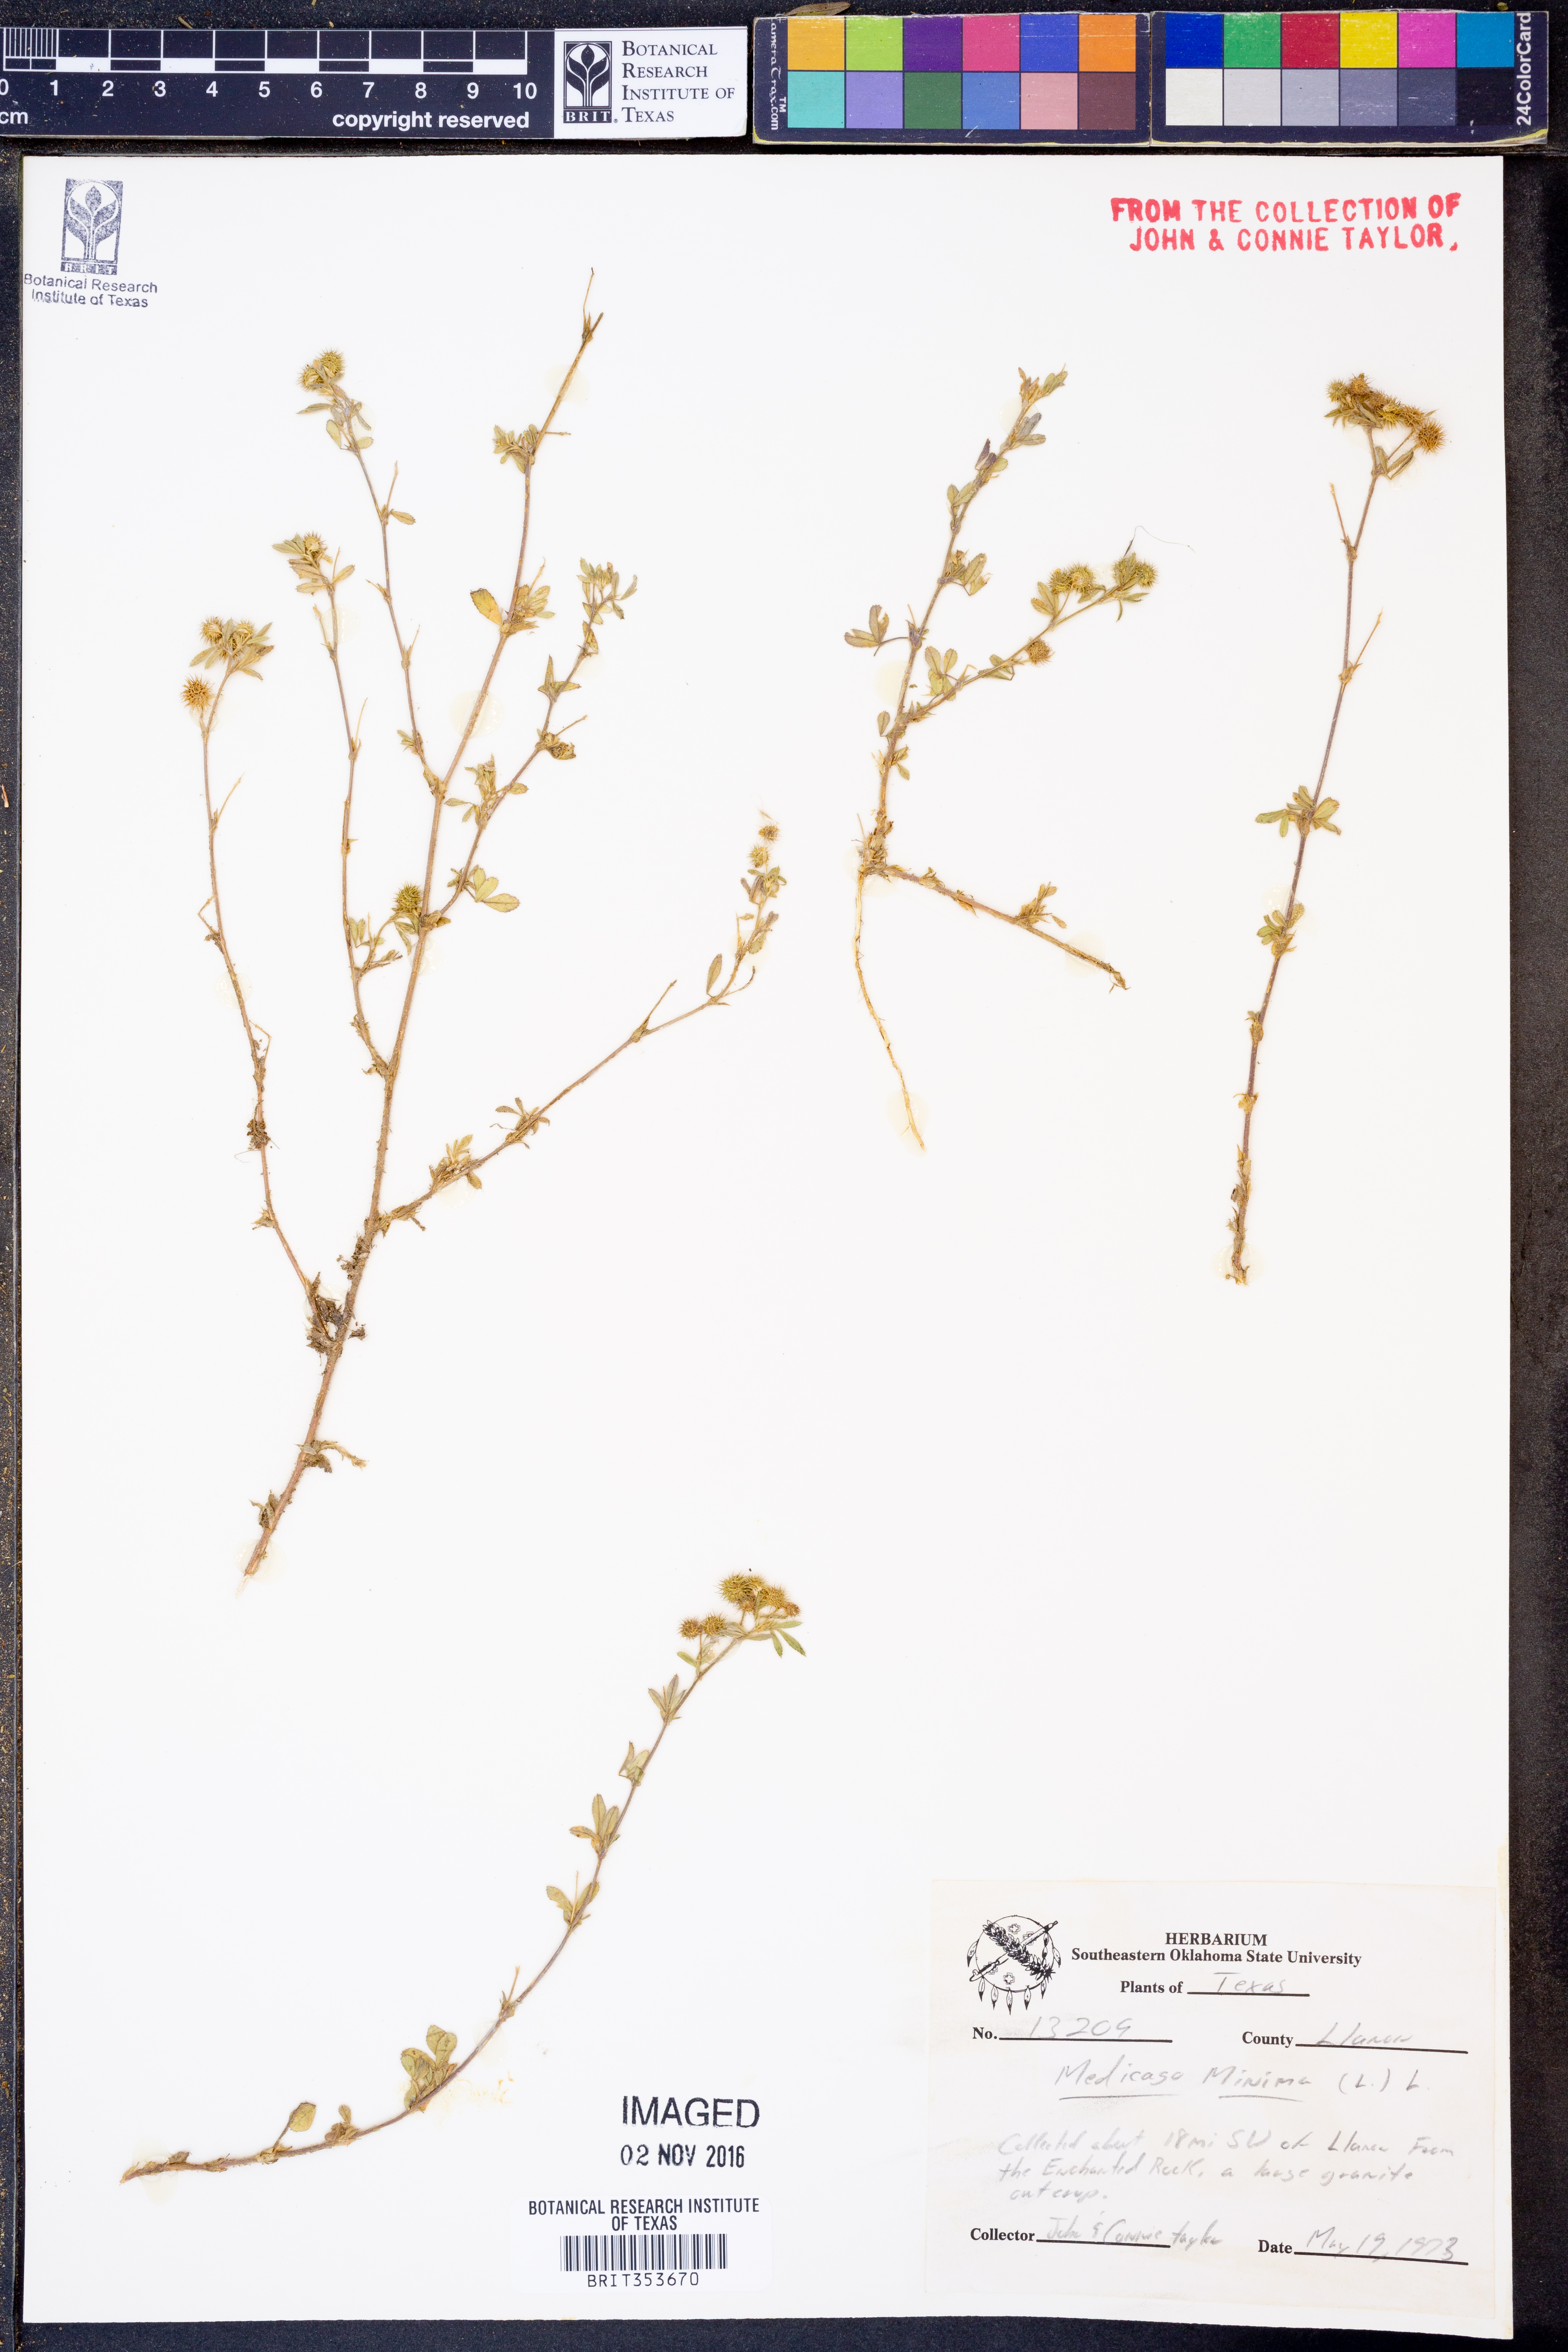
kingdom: Plantae
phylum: Tracheophyta
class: Magnoliopsida
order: Fabales
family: Fabaceae
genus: Medicago
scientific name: Medicago minima
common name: Little bur-clover
